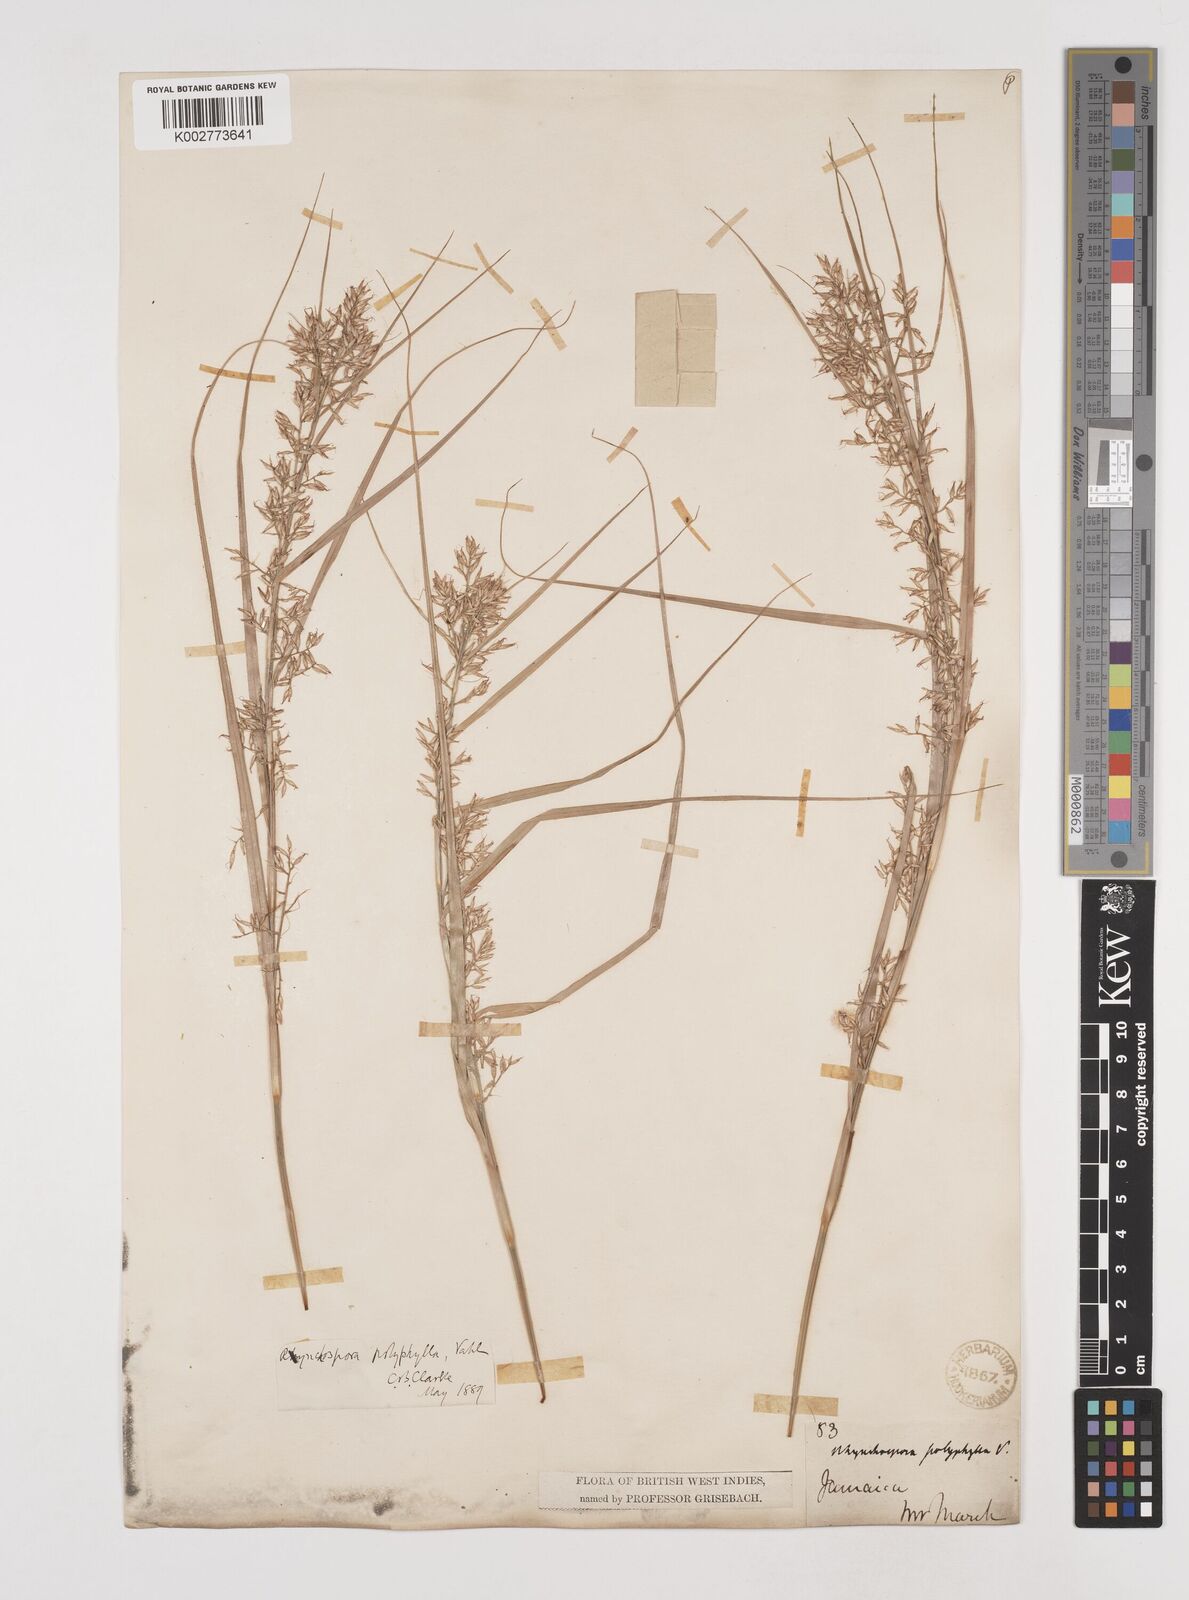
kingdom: Plantae
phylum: Tracheophyta
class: Liliopsida
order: Poales
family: Cyperaceae
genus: Rhynchospora
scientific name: Rhynchospora polyphylla
